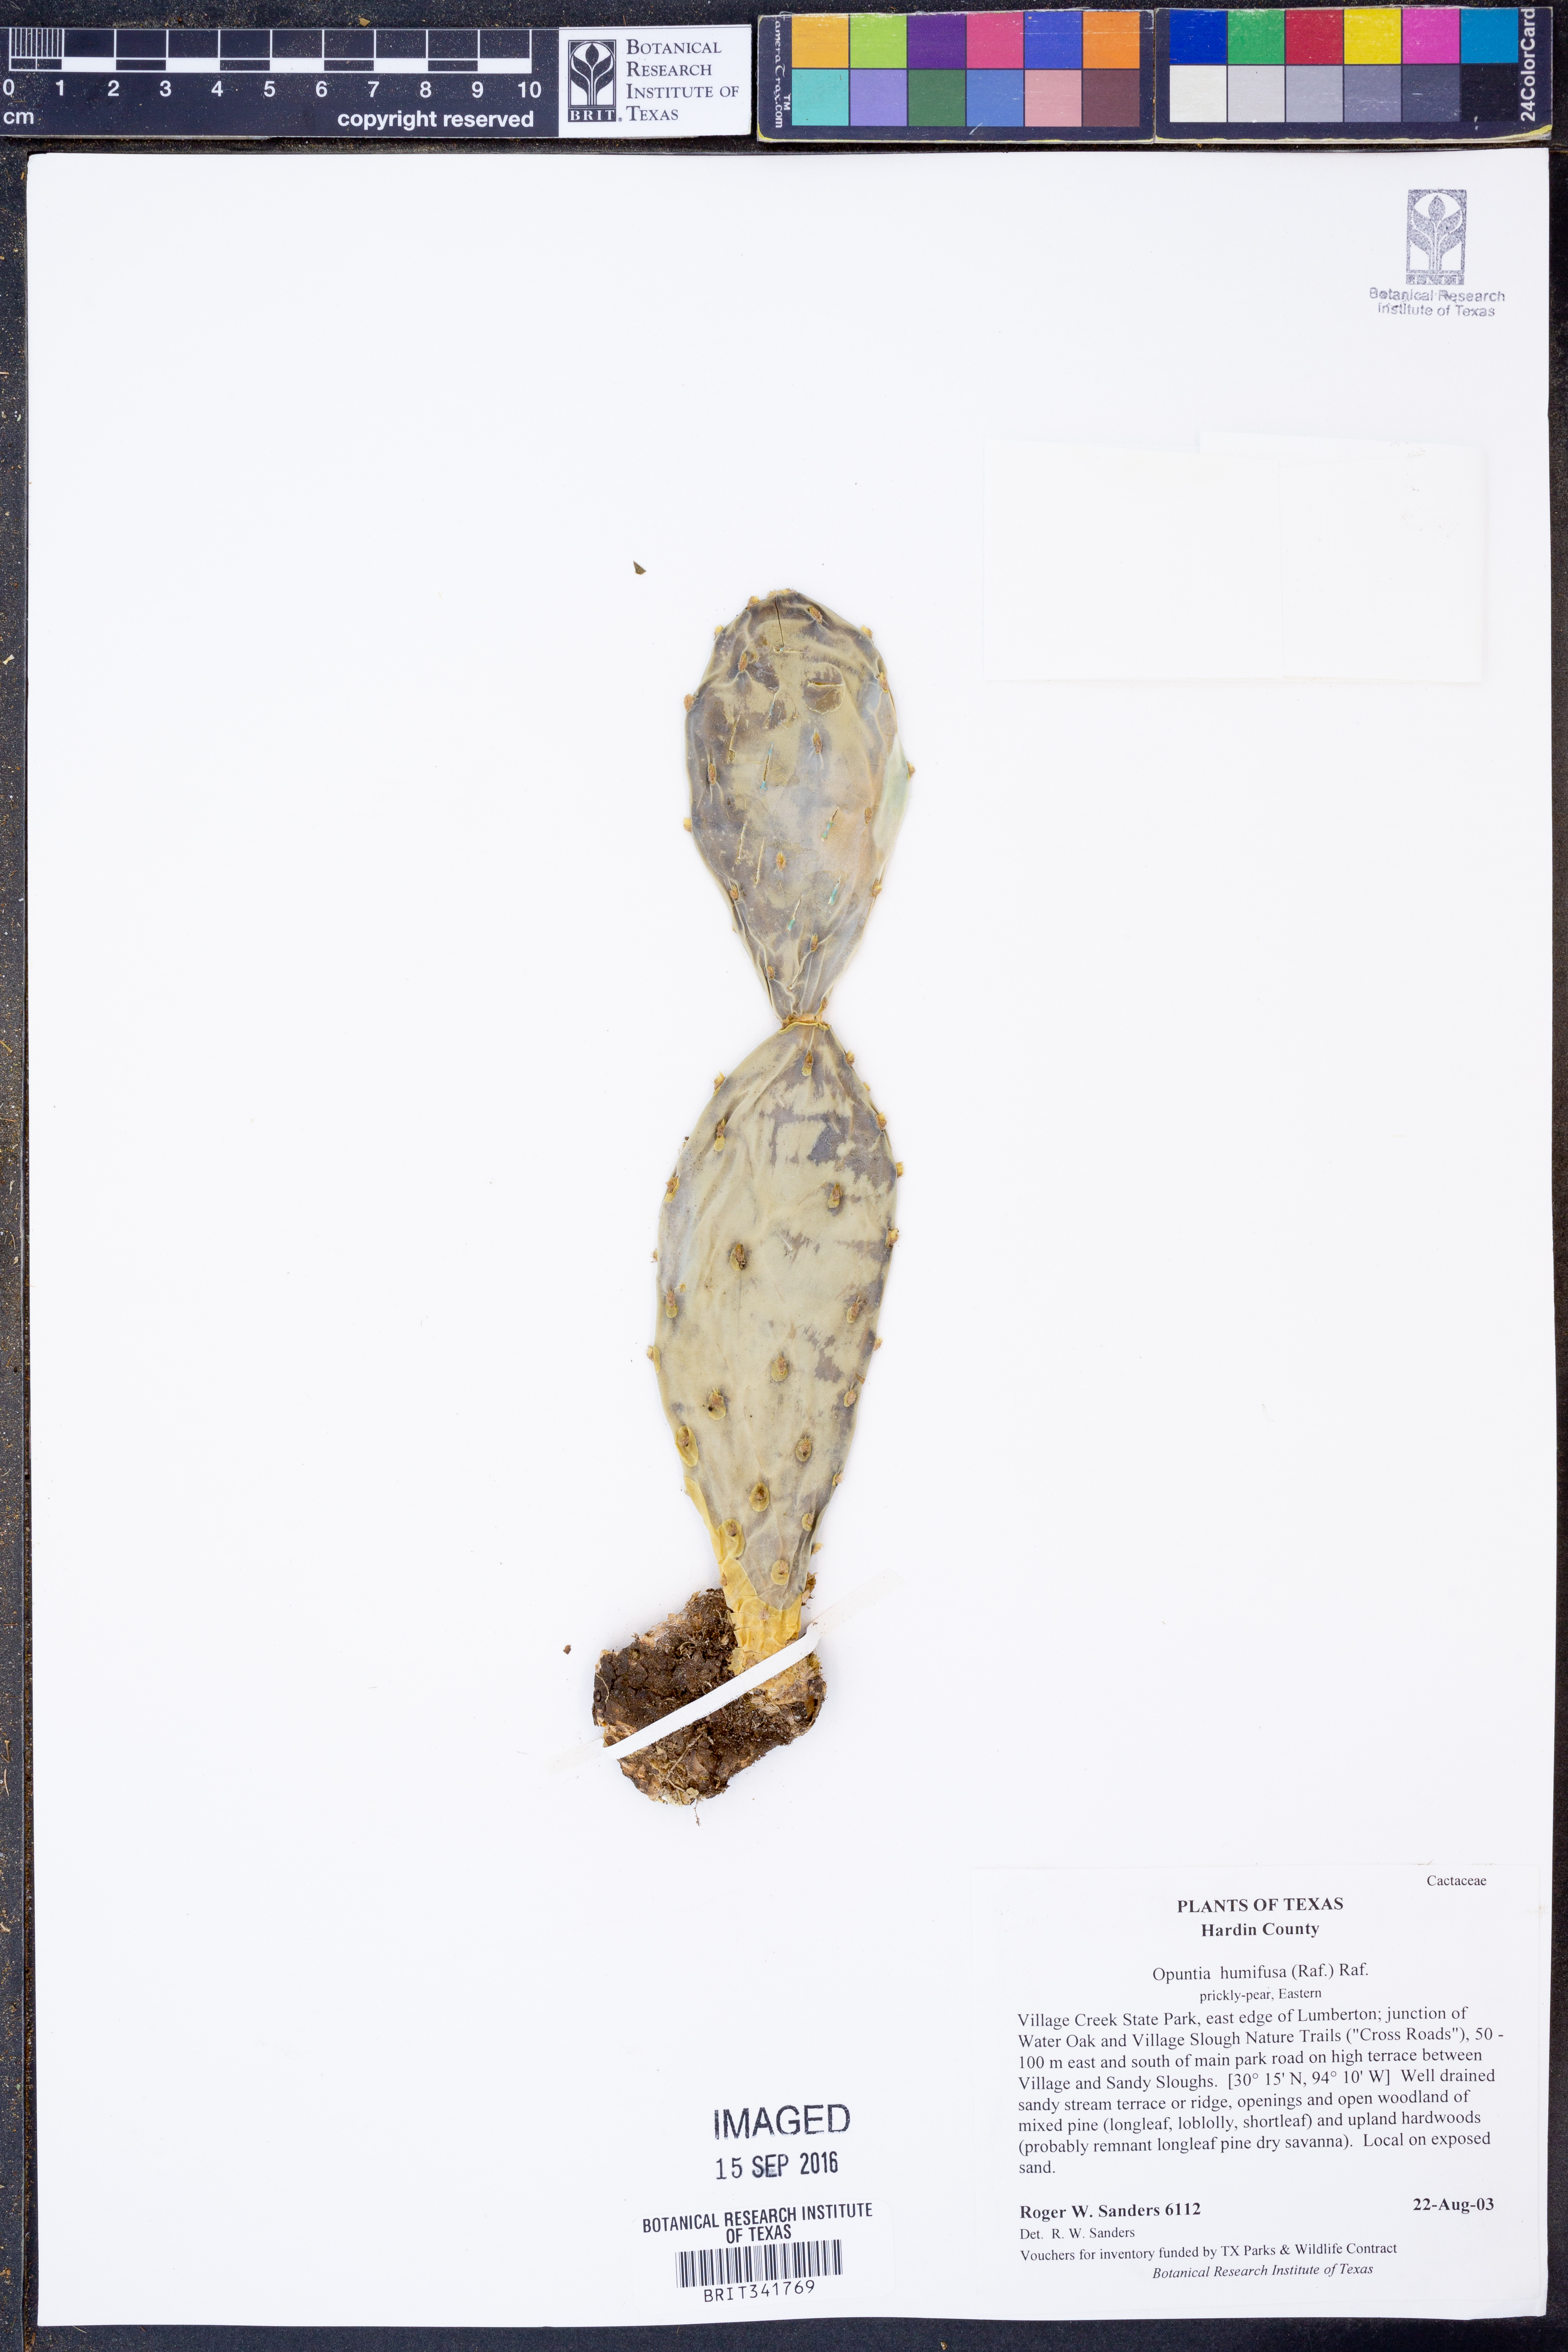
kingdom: Plantae
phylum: Tracheophyta
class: Magnoliopsida
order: Caryophyllales
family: Cactaceae
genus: Opuntia
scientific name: Opuntia humifusa
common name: Eastern prickly-pear
